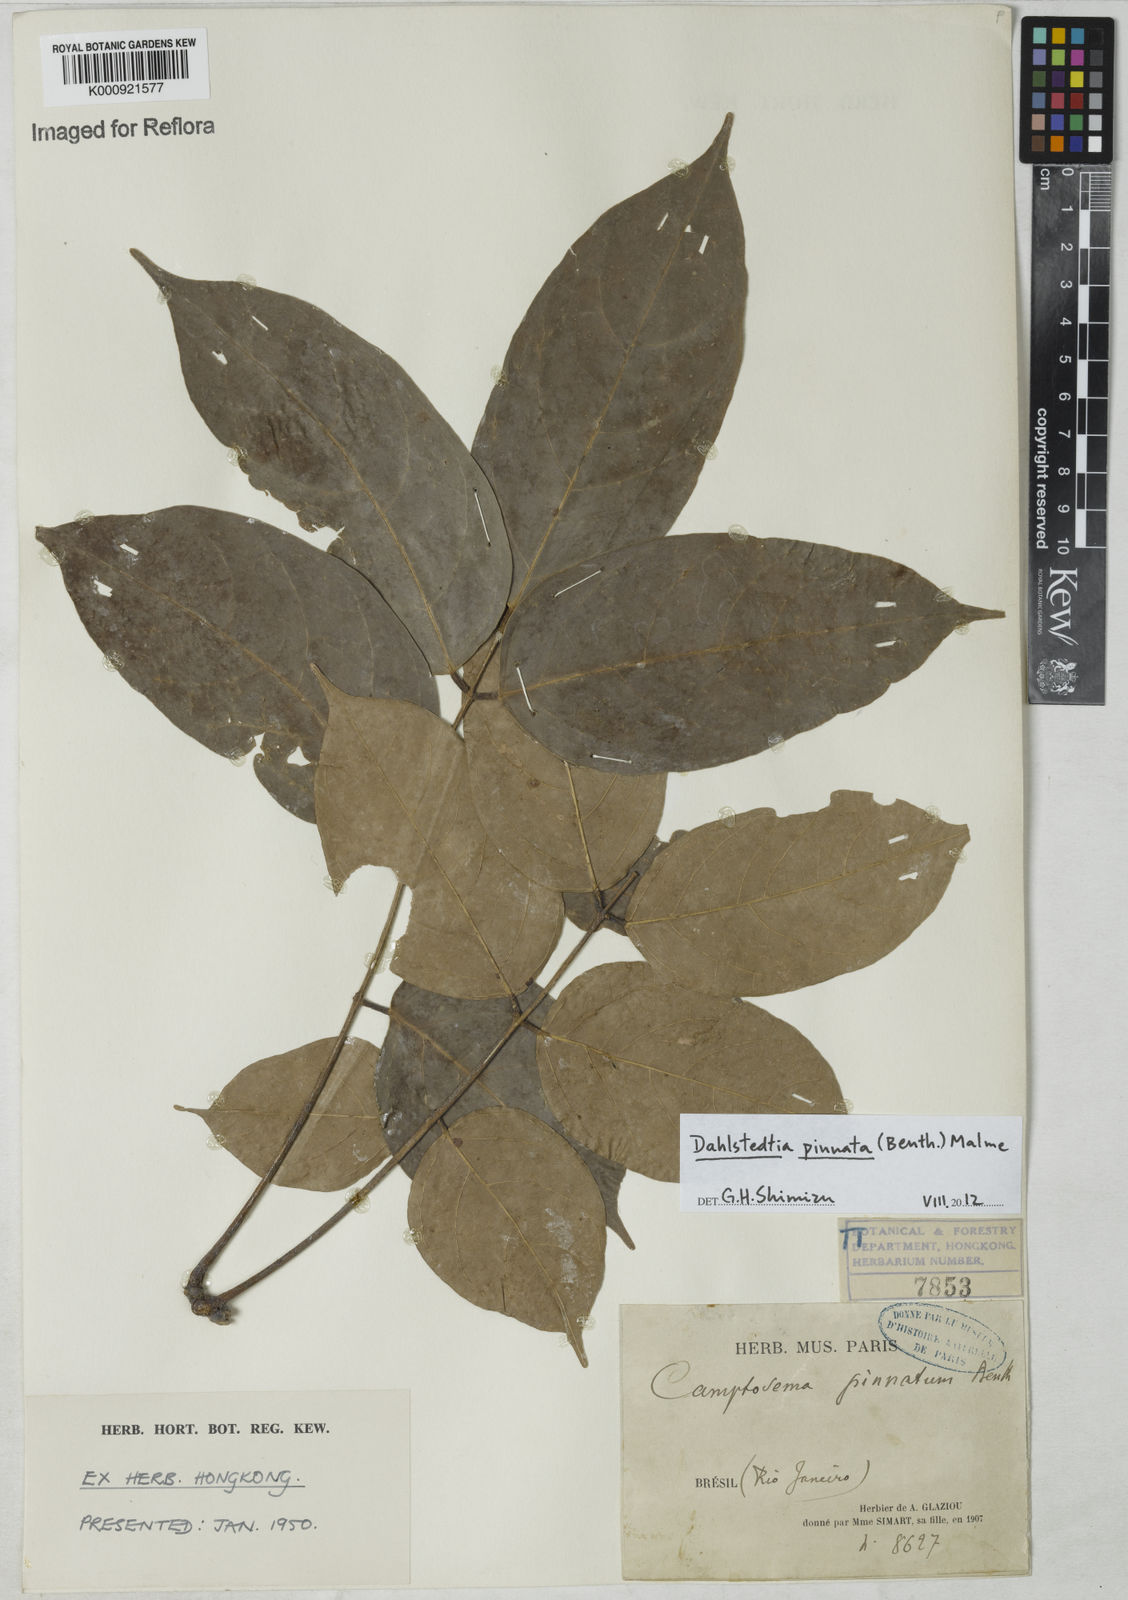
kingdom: Plantae
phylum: Tracheophyta
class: Magnoliopsida
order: Fabales
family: Fabaceae
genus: Dahlstedtia
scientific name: Dahlstedtia pinnata
